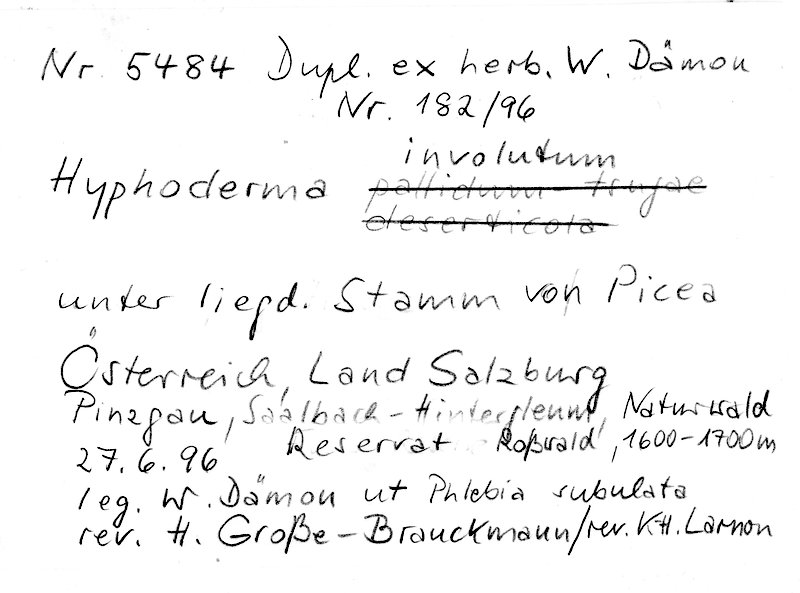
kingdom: Plantae
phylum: Tracheophyta
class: Pinopsida
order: Pinales
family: Pinaceae
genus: Picea
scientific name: Picea
